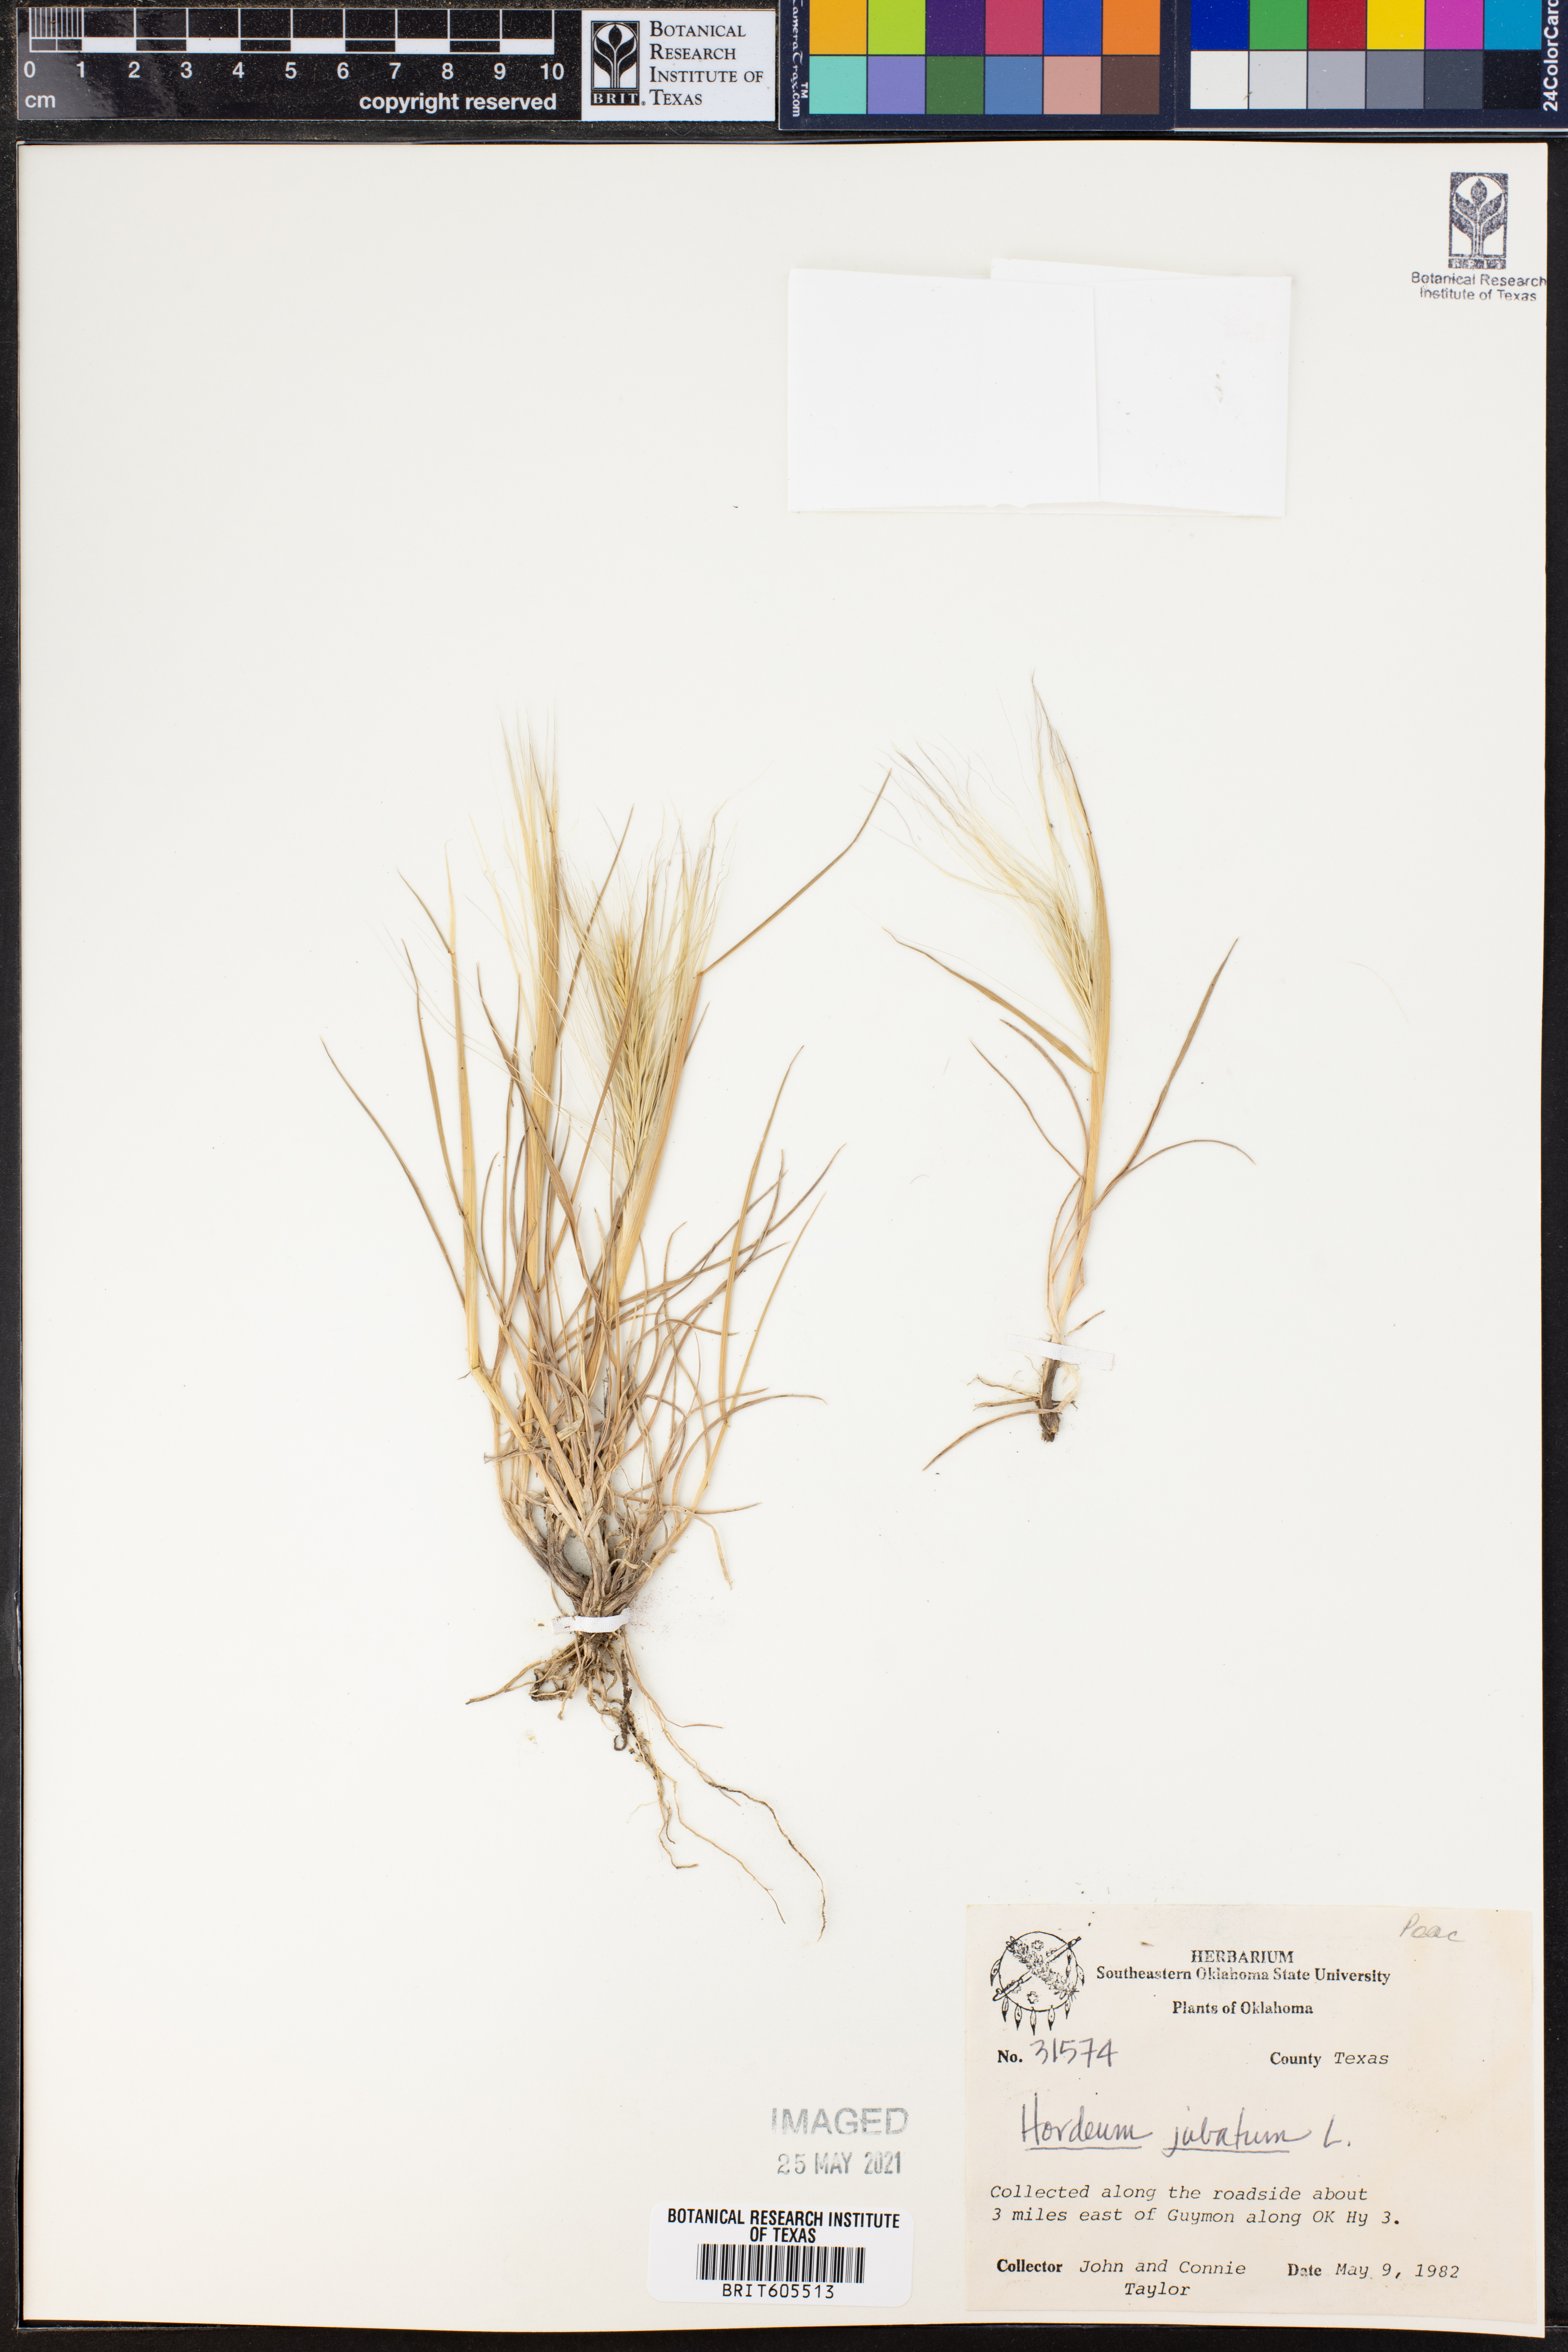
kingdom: Plantae
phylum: Tracheophyta
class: Liliopsida
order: Poales
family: Poaceae
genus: Hordeum
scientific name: Hordeum jubatum
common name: Foxtail barley
